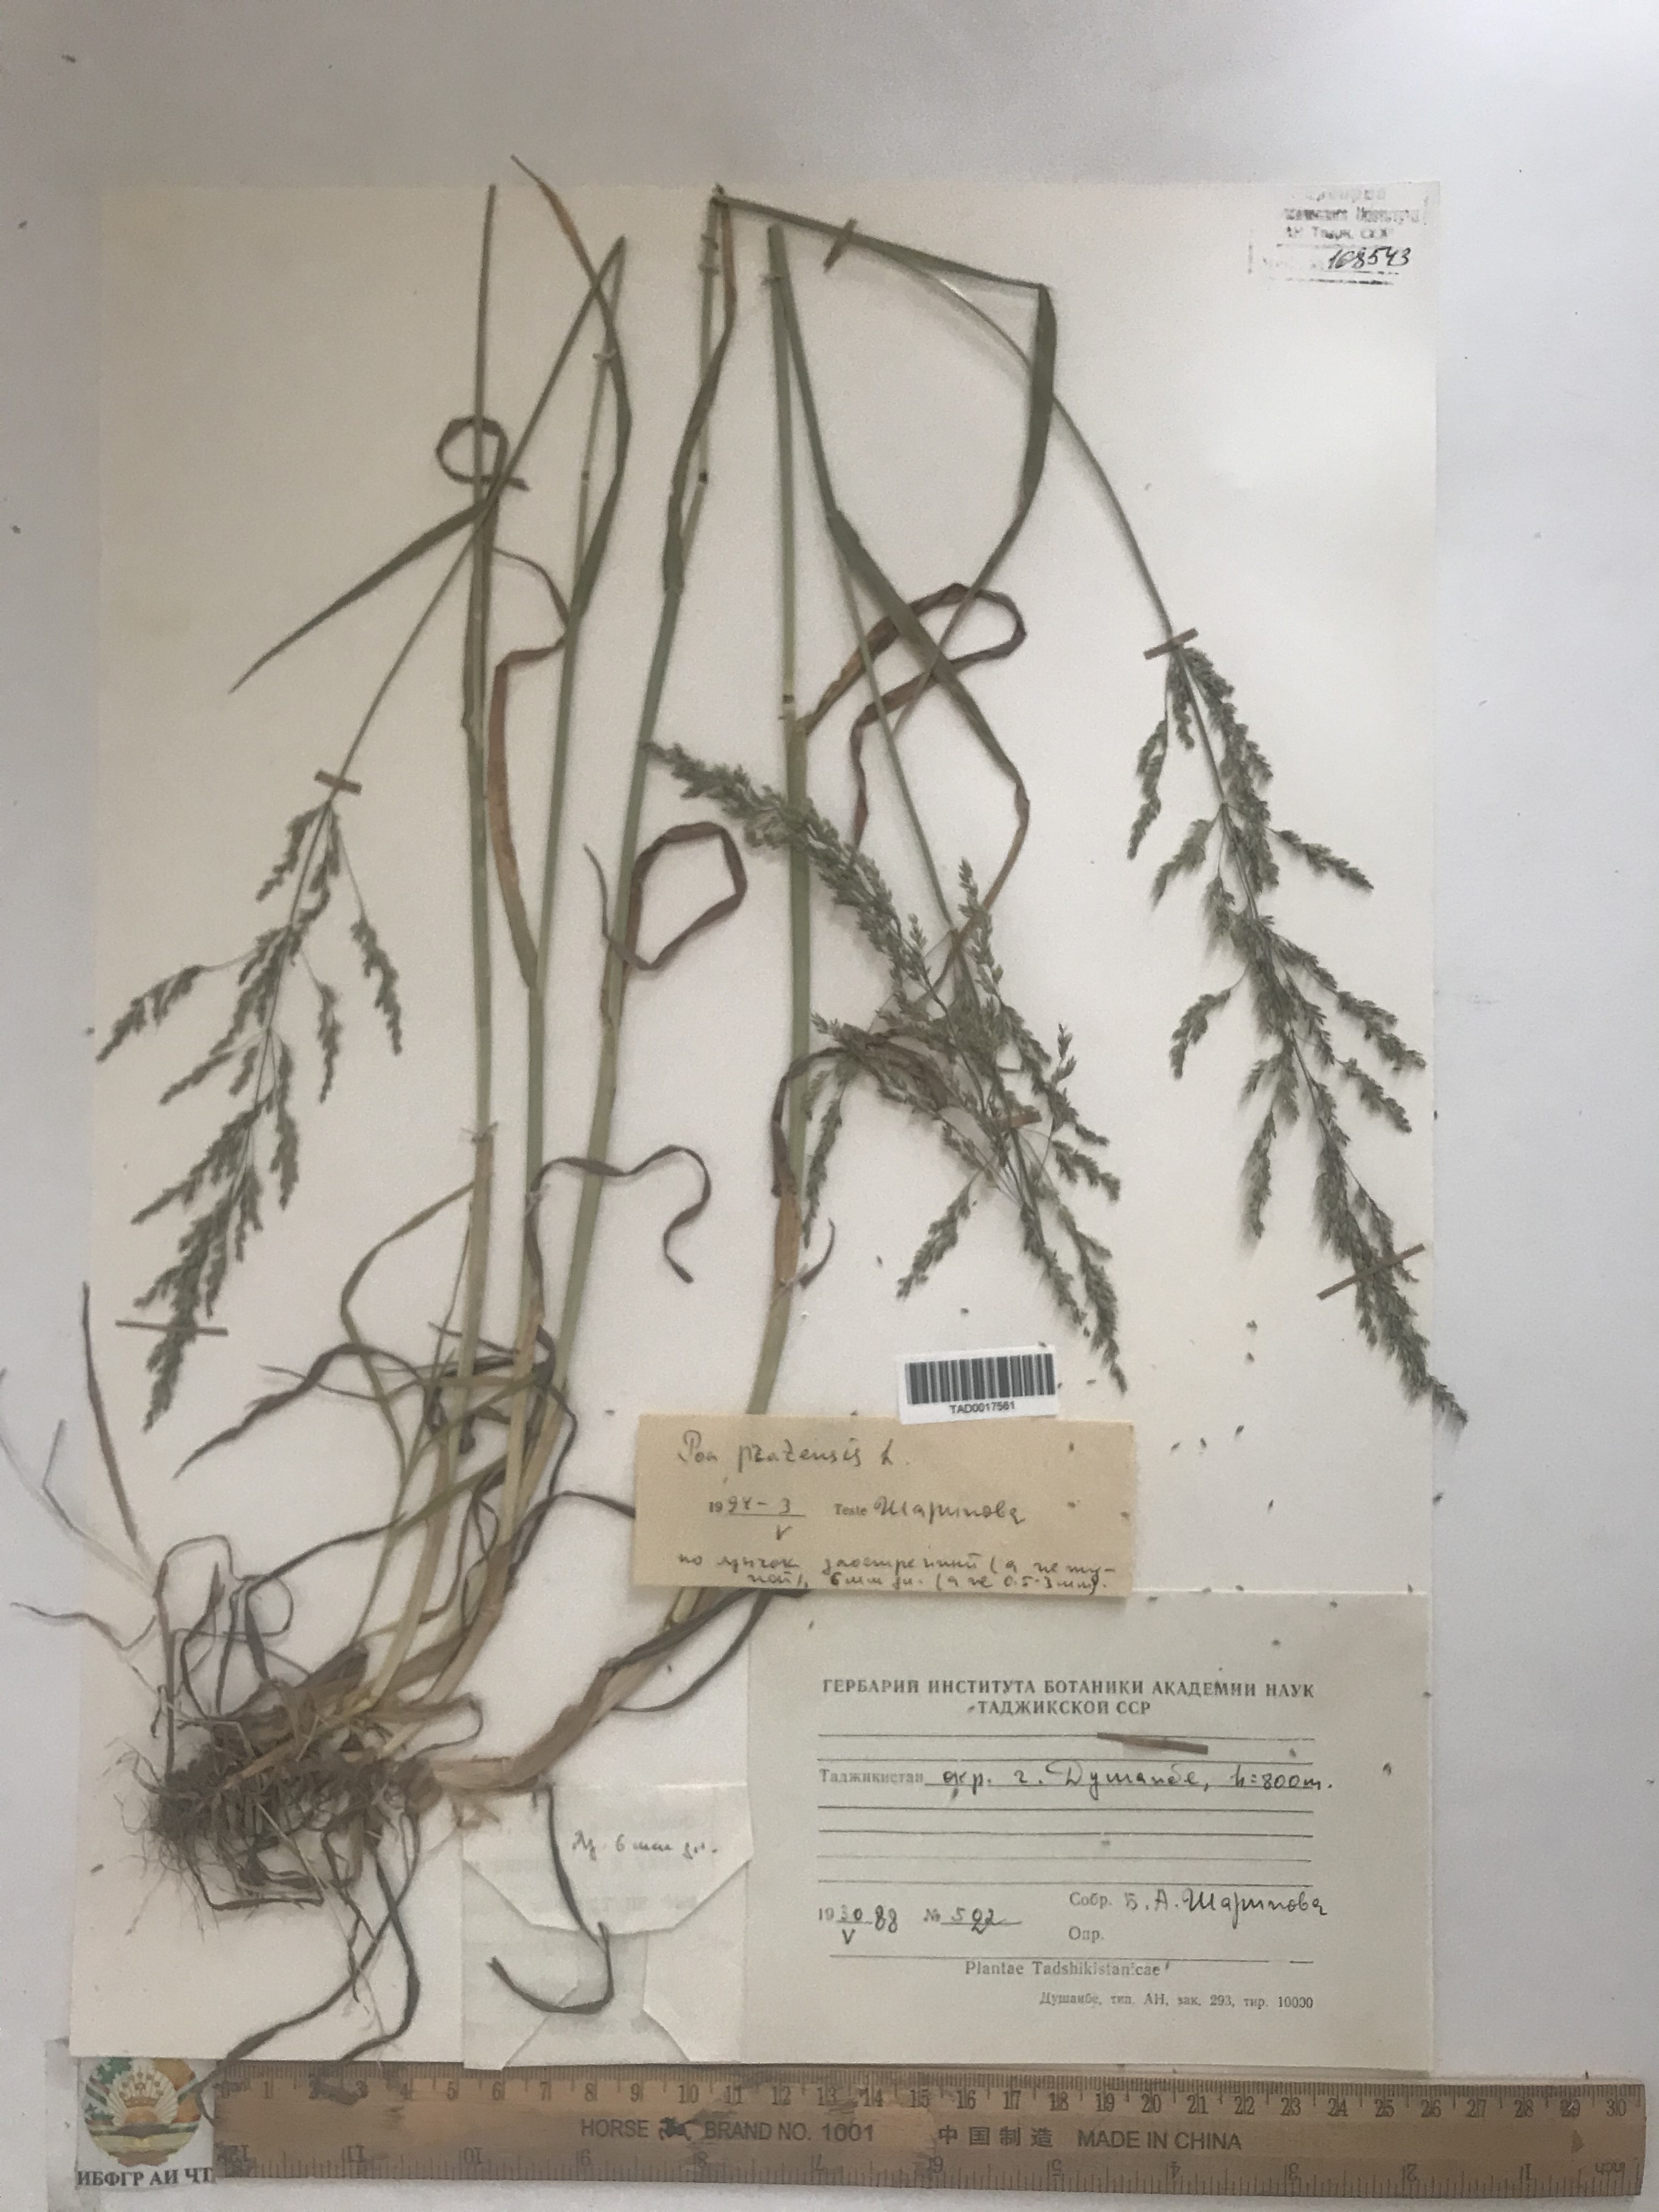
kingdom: Plantae
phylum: Tracheophyta
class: Liliopsida
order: Poales
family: Poaceae
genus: Poa
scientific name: Poa pratensis
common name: Kentucky bluegrass
